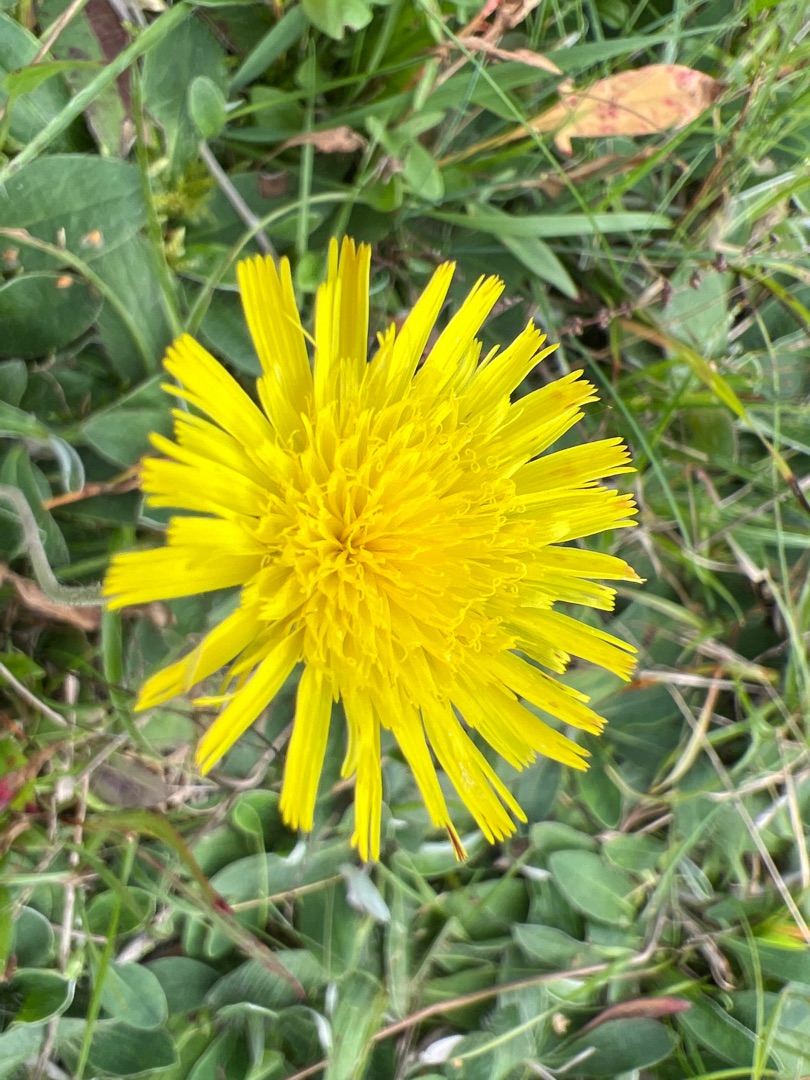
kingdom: Plantae
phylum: Tracheophyta
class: Magnoliopsida
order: Asterales
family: Asteraceae
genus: Pilosella
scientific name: Pilosella officinarum
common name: Håret høgeurt
